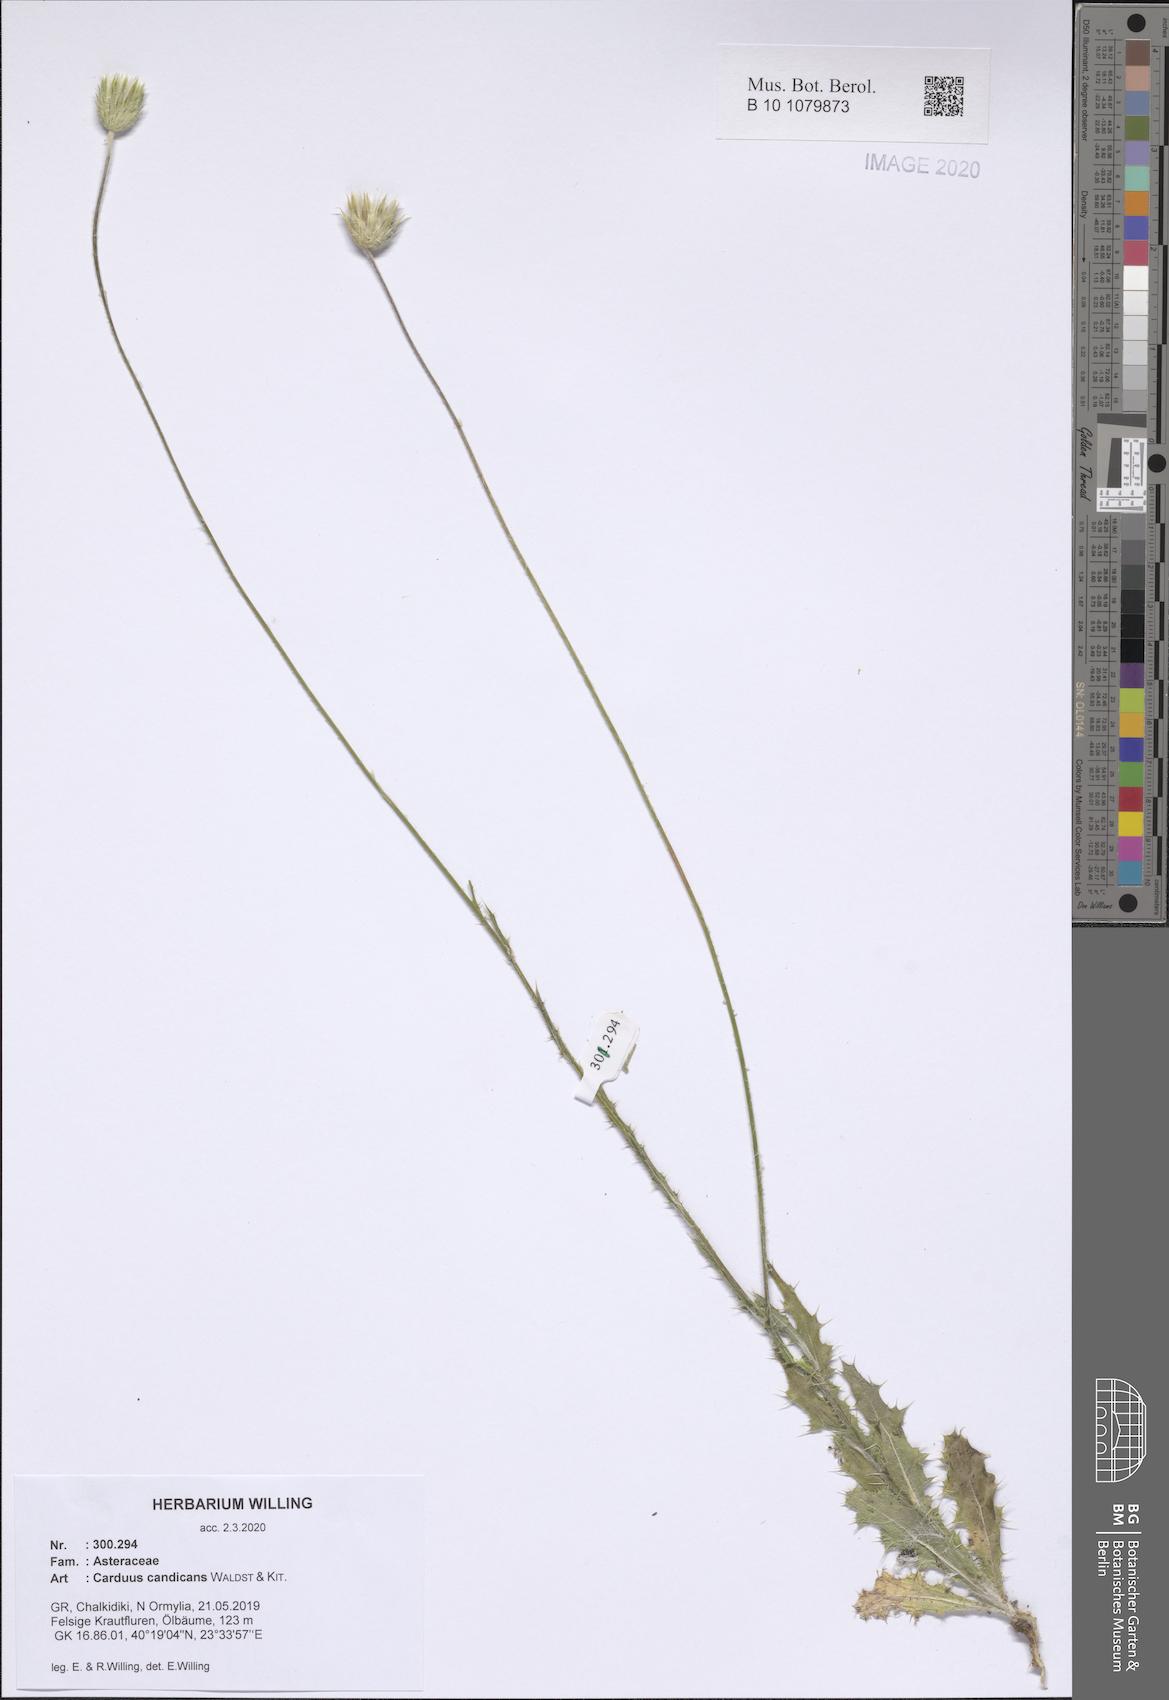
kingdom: Plantae
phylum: Tracheophyta
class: Magnoliopsida
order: Asterales
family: Asteraceae
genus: Carduus
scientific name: Carduus candicans
